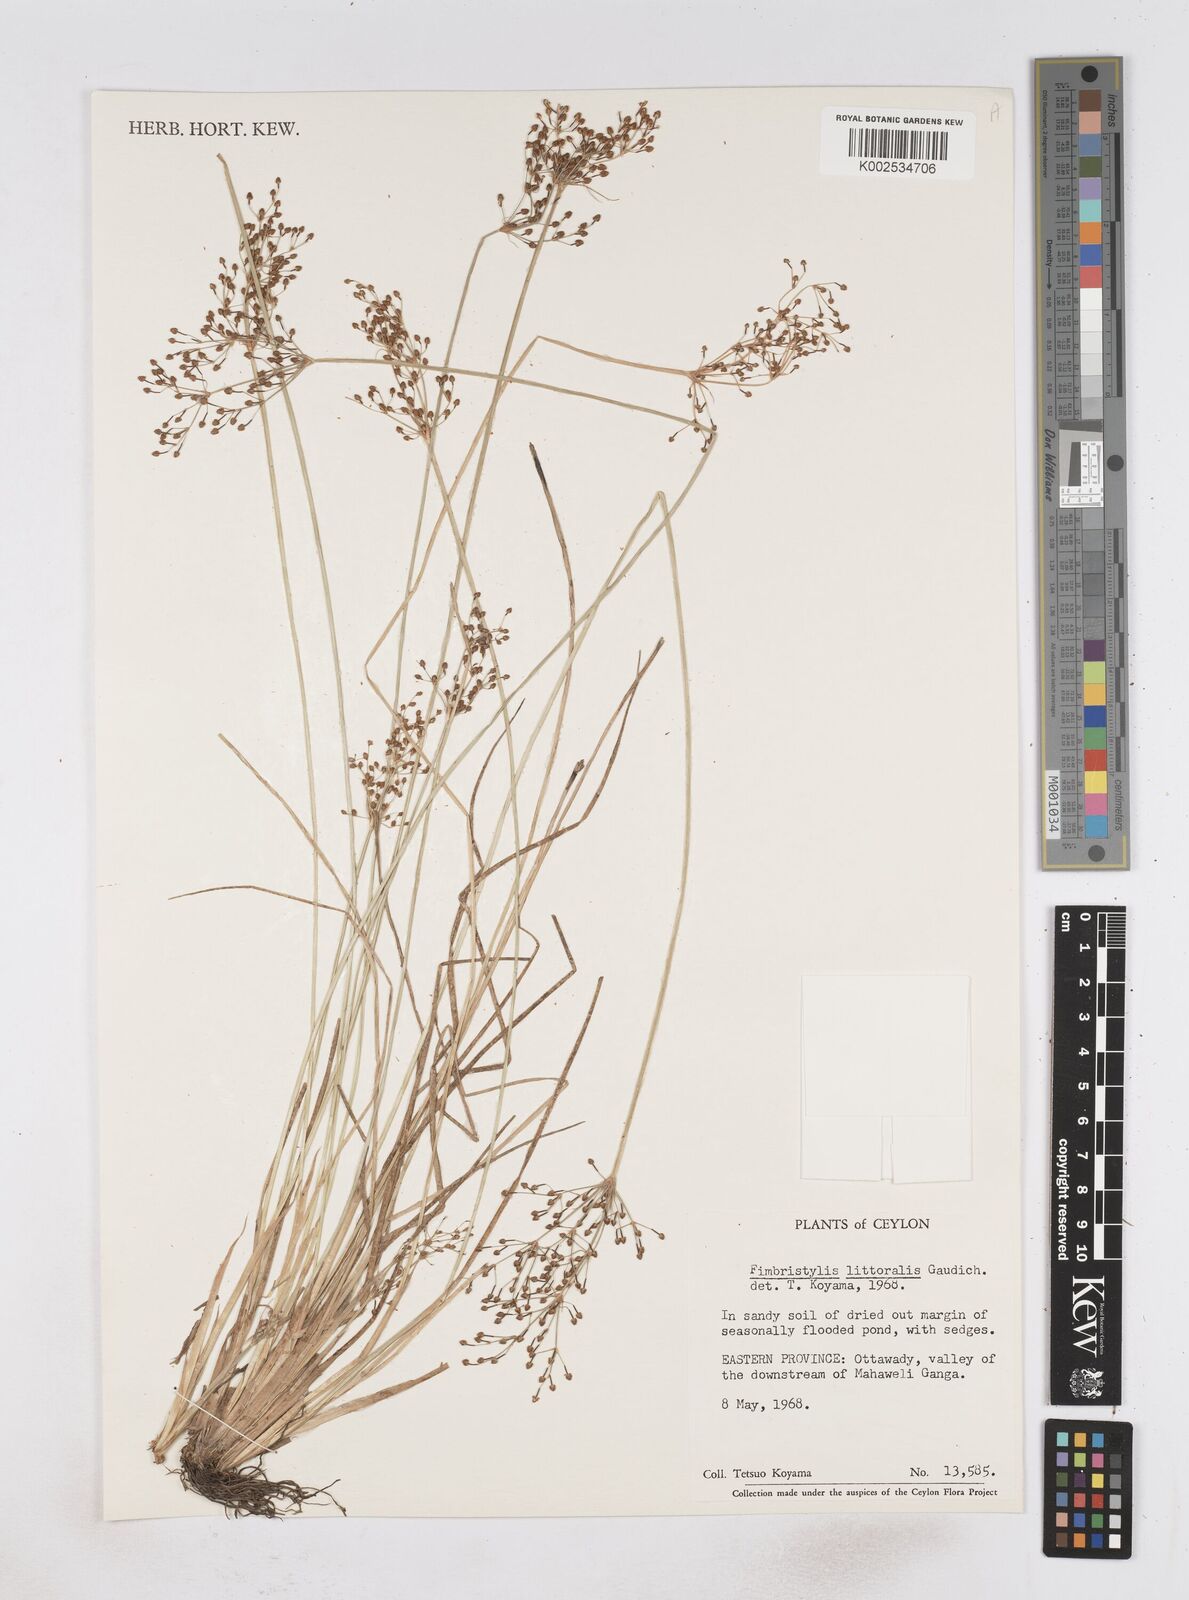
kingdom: Plantae
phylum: Tracheophyta
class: Liliopsida
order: Poales
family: Cyperaceae
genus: Fimbristylis
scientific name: Fimbristylis littoralis
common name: Fimbry
